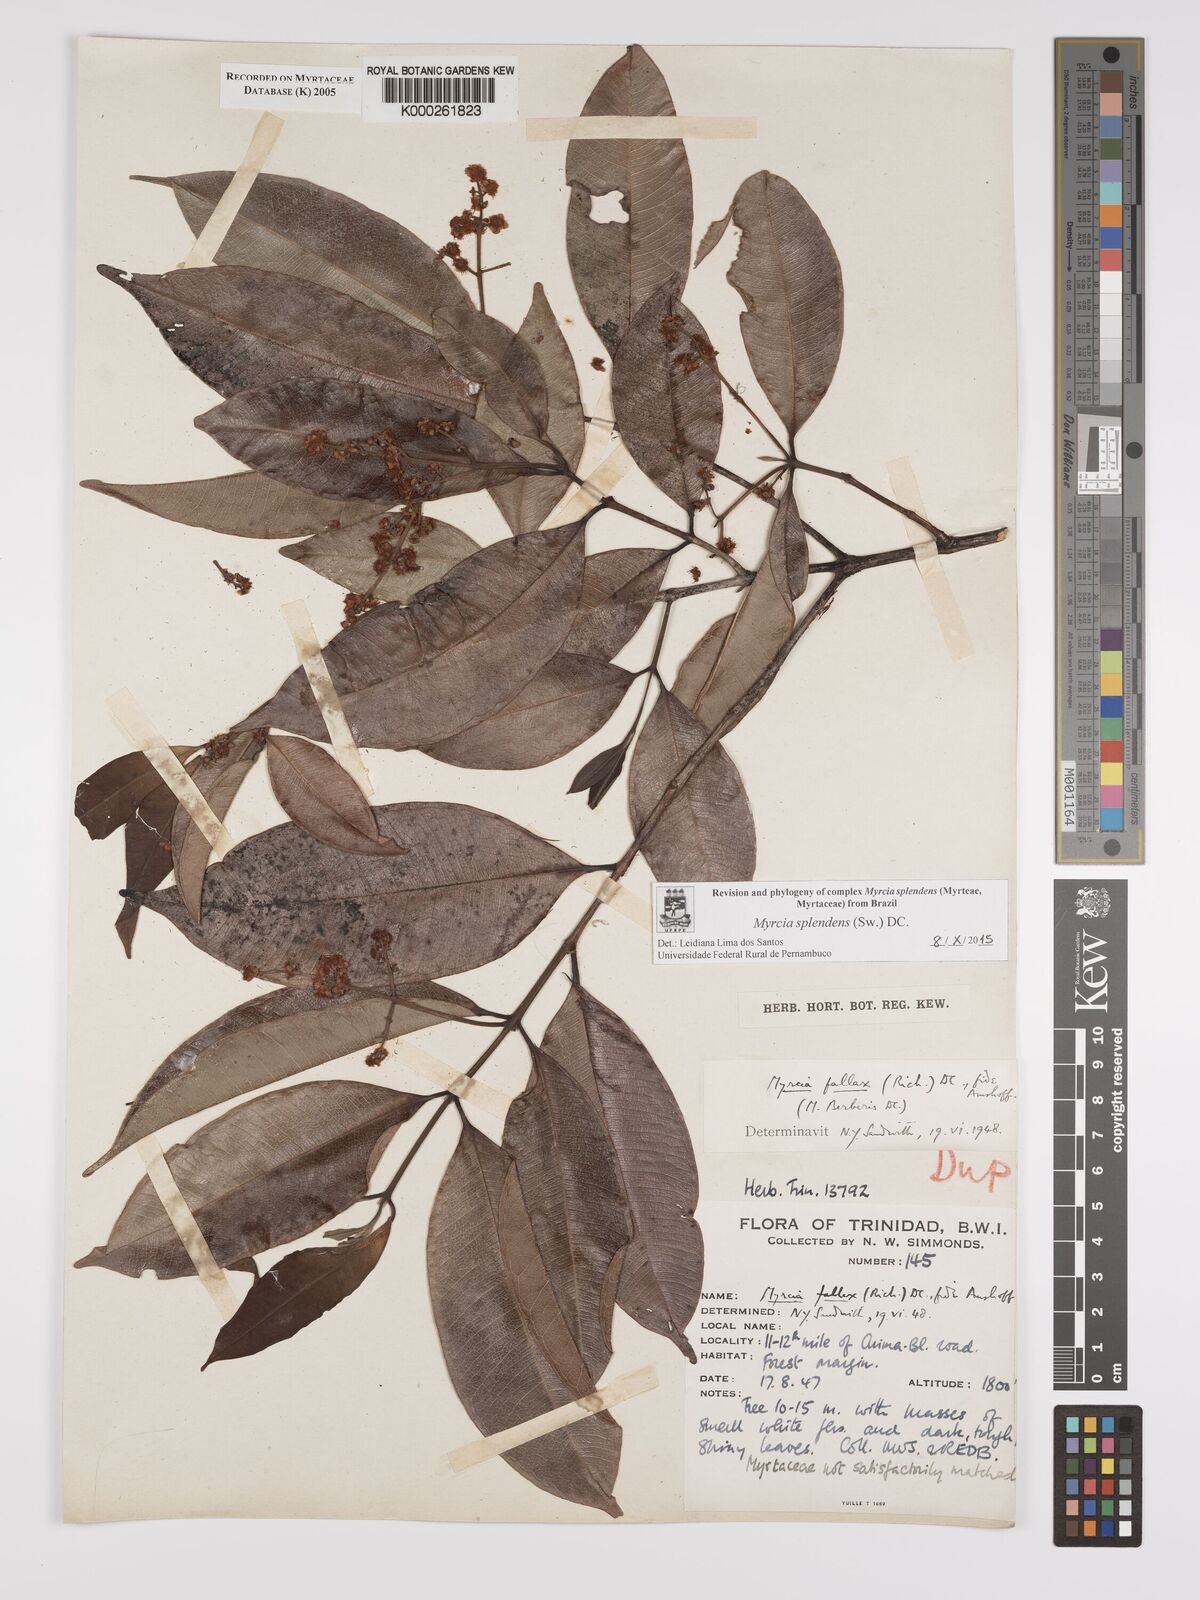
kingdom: Plantae
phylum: Tracheophyta
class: Magnoliopsida
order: Myrtales
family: Myrtaceae
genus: Myrcia
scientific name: Myrcia splendens
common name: Surinam cherry
